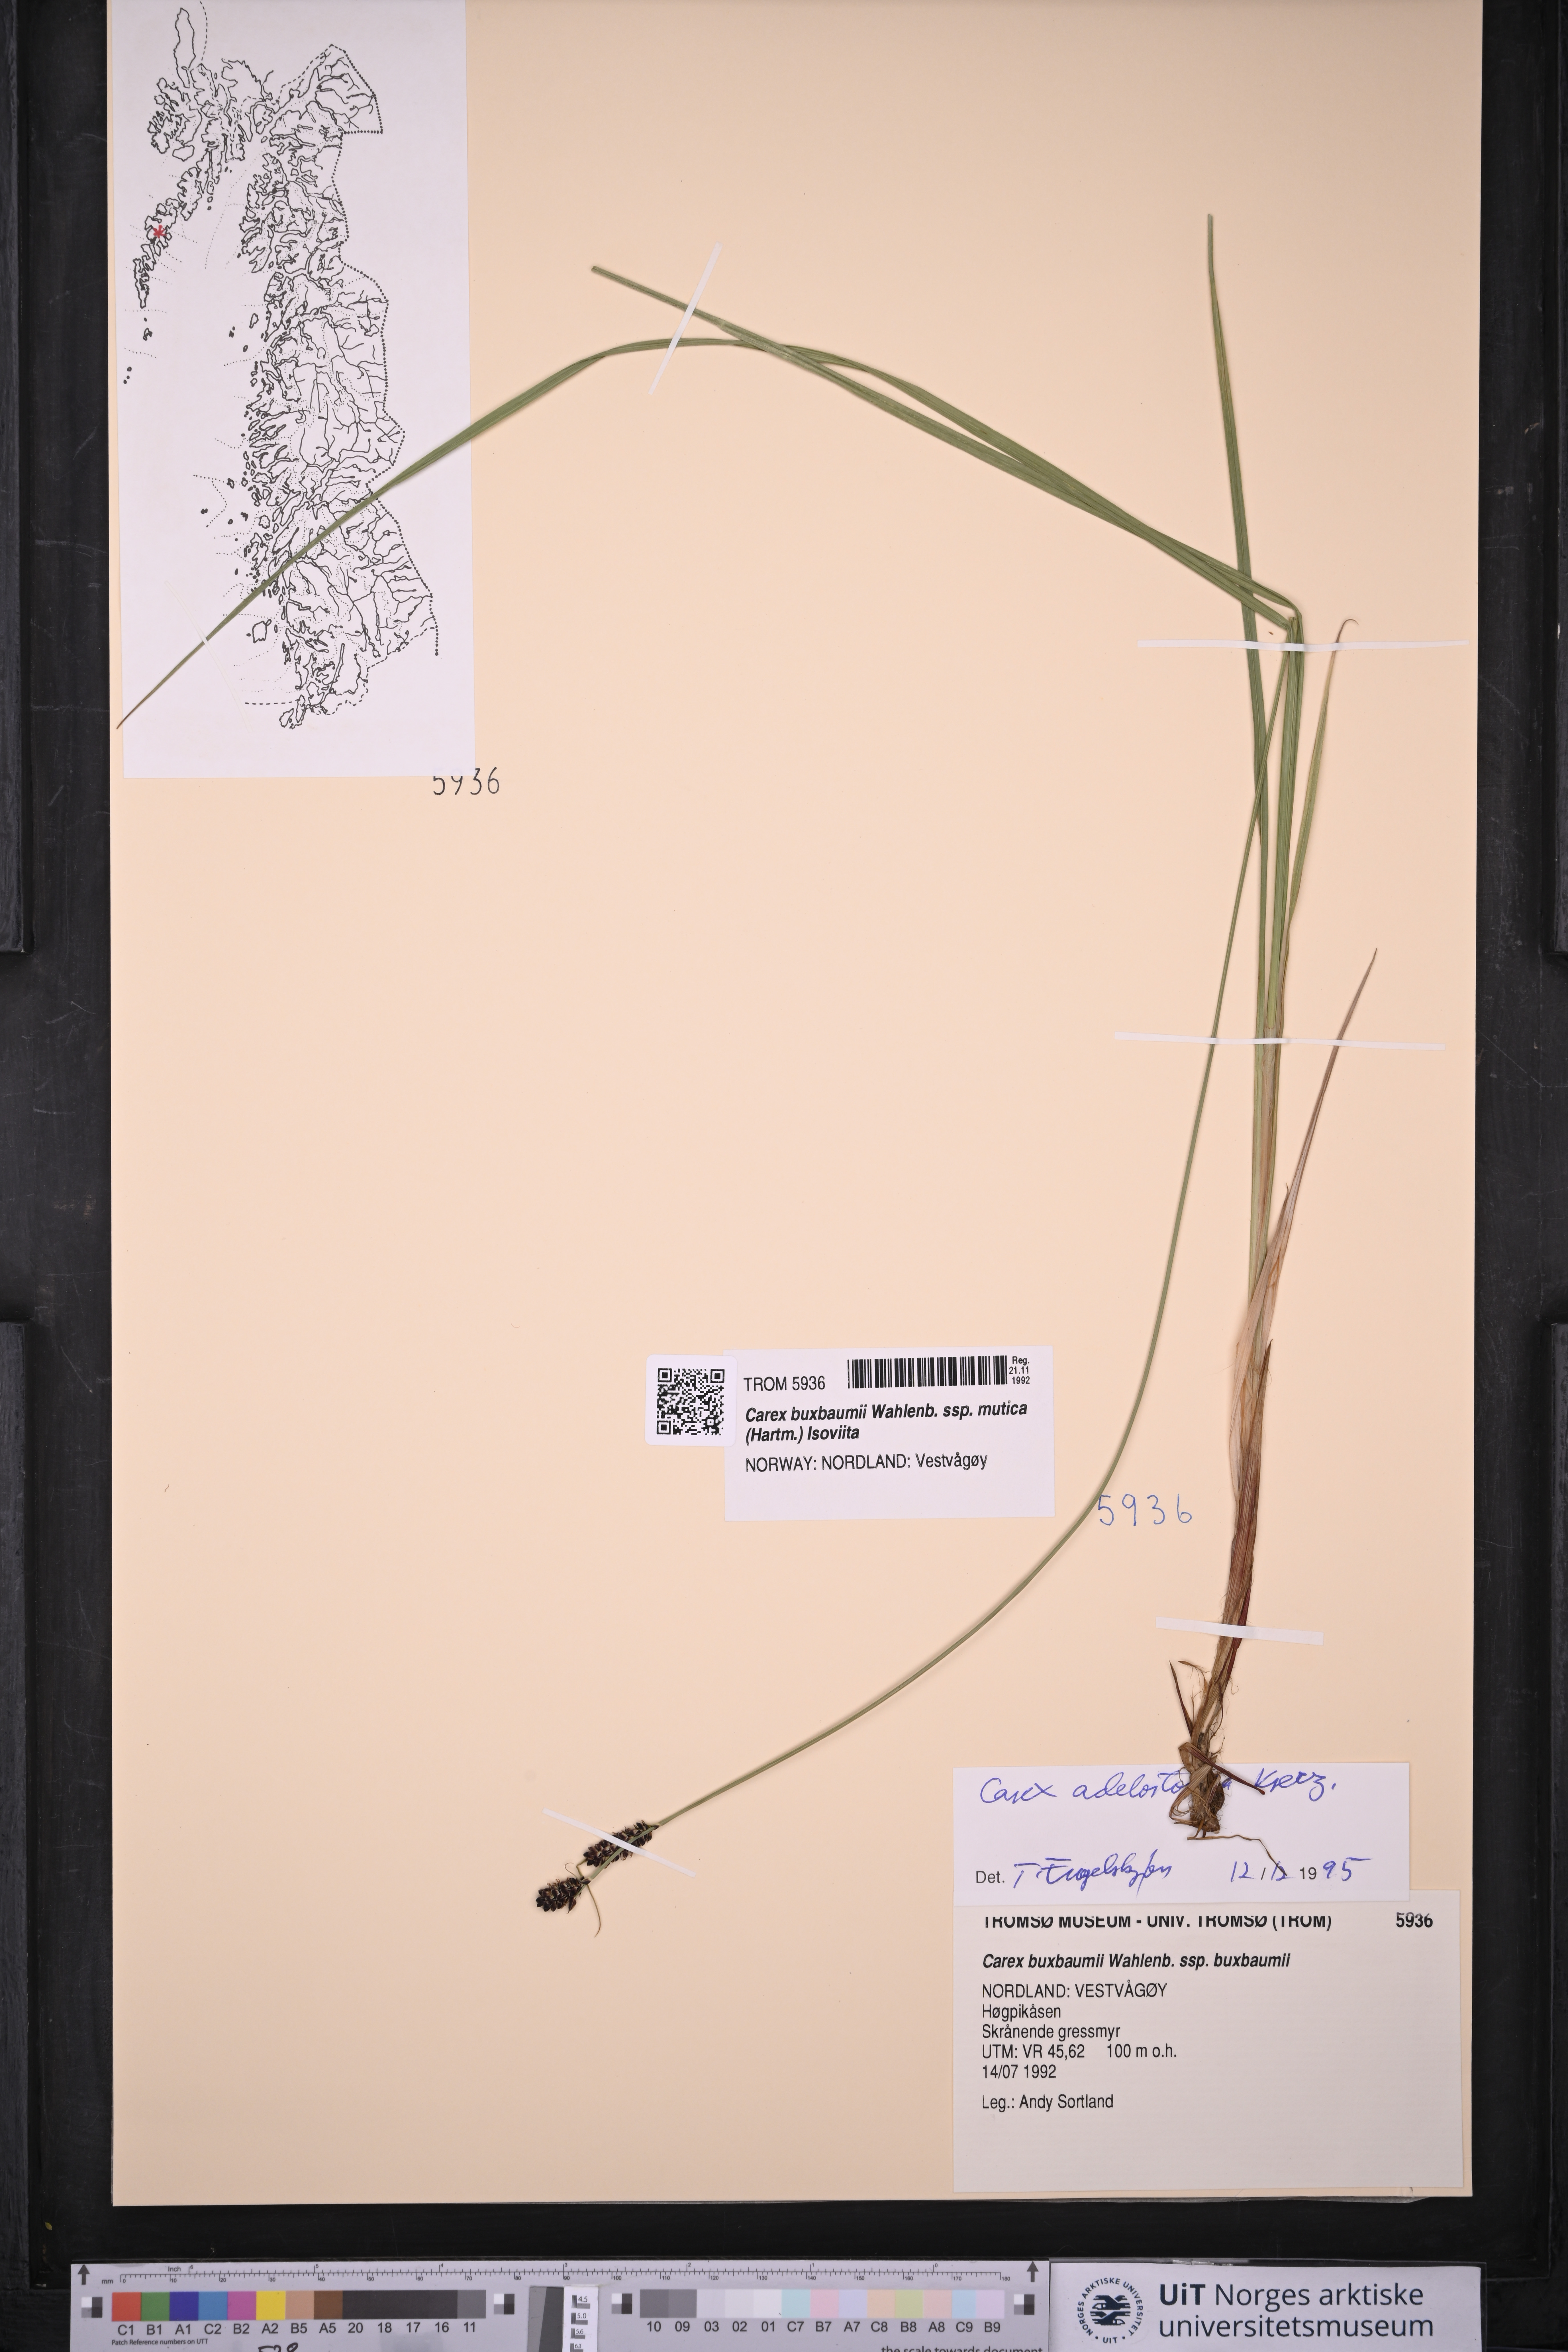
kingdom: Plantae
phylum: Tracheophyta
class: Liliopsida
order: Poales
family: Cyperaceae
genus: Carex
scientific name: Carex adelostoma
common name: Circumpolar sedge
